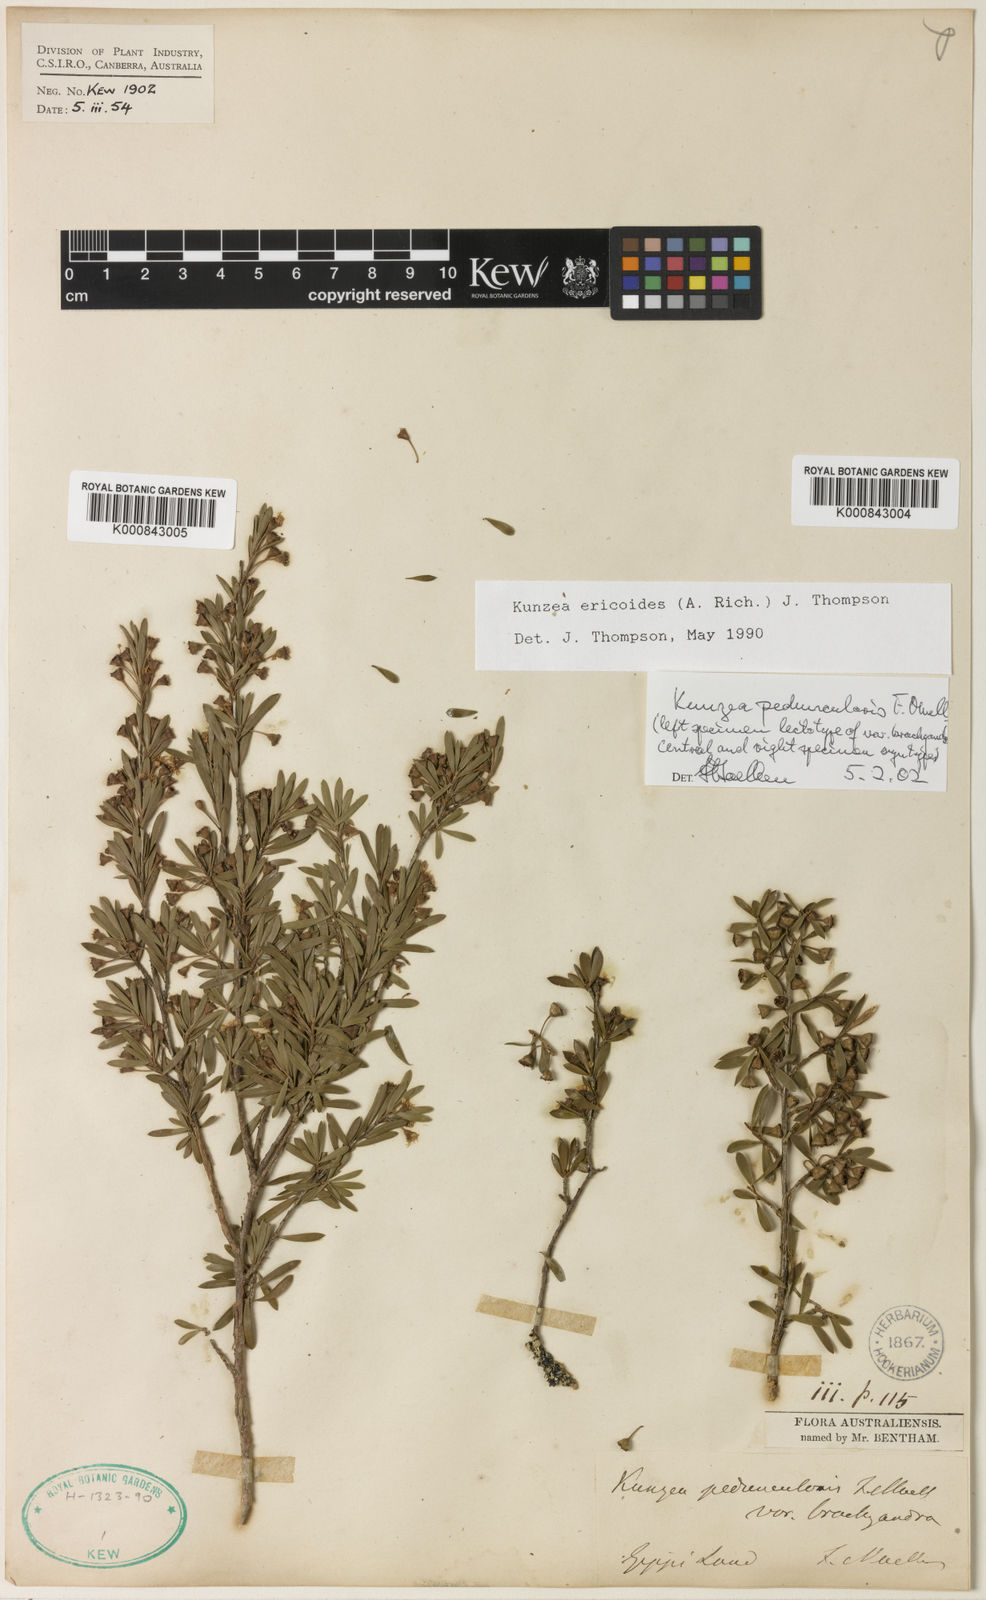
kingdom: Plantae
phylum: Tracheophyta
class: Magnoliopsida
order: Myrtales
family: Myrtaceae
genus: Kunzea
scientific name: Kunzea ericoides
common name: Burgan
